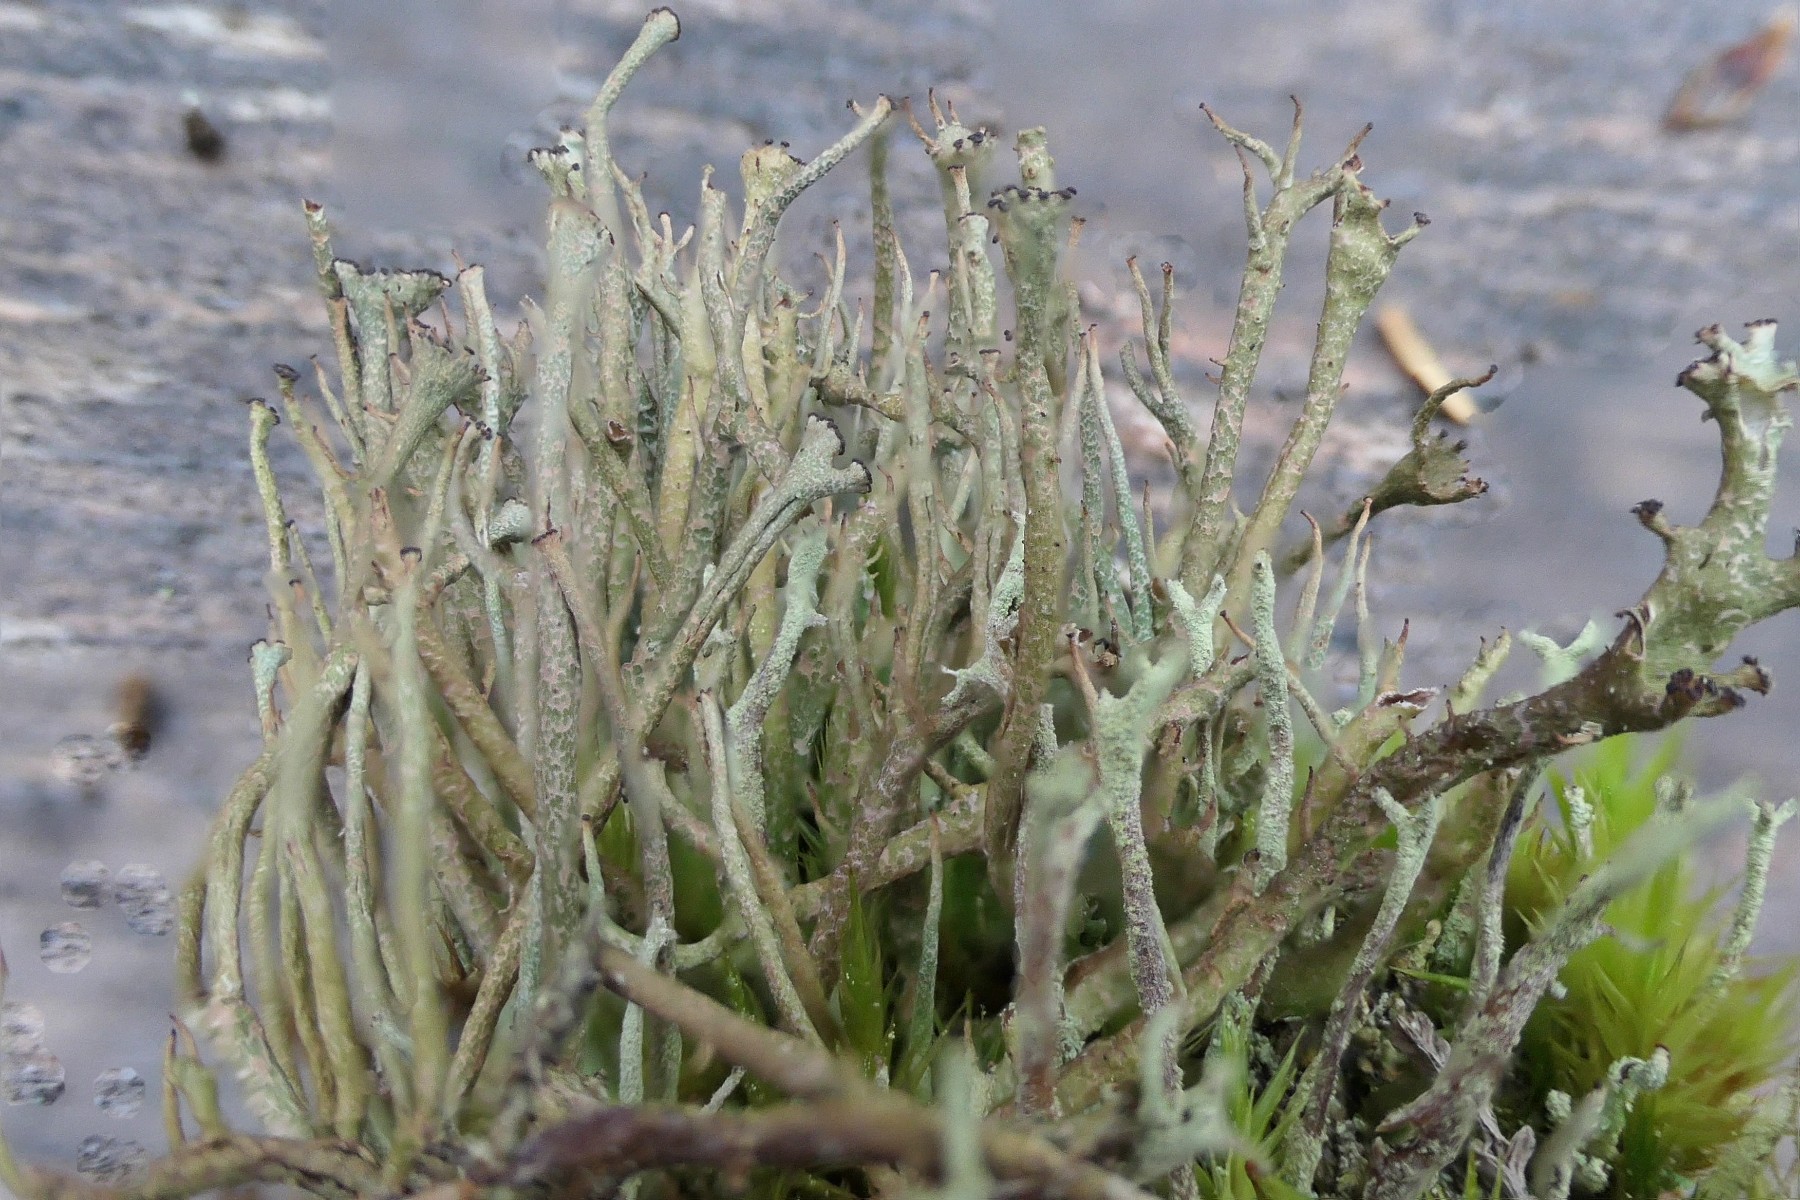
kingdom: Fungi
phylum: Ascomycota
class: Lecanoromycetes
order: Lecanorales
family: Cladoniaceae
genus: Cladonia
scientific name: Cladonia gracilis
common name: slank bægerlav
